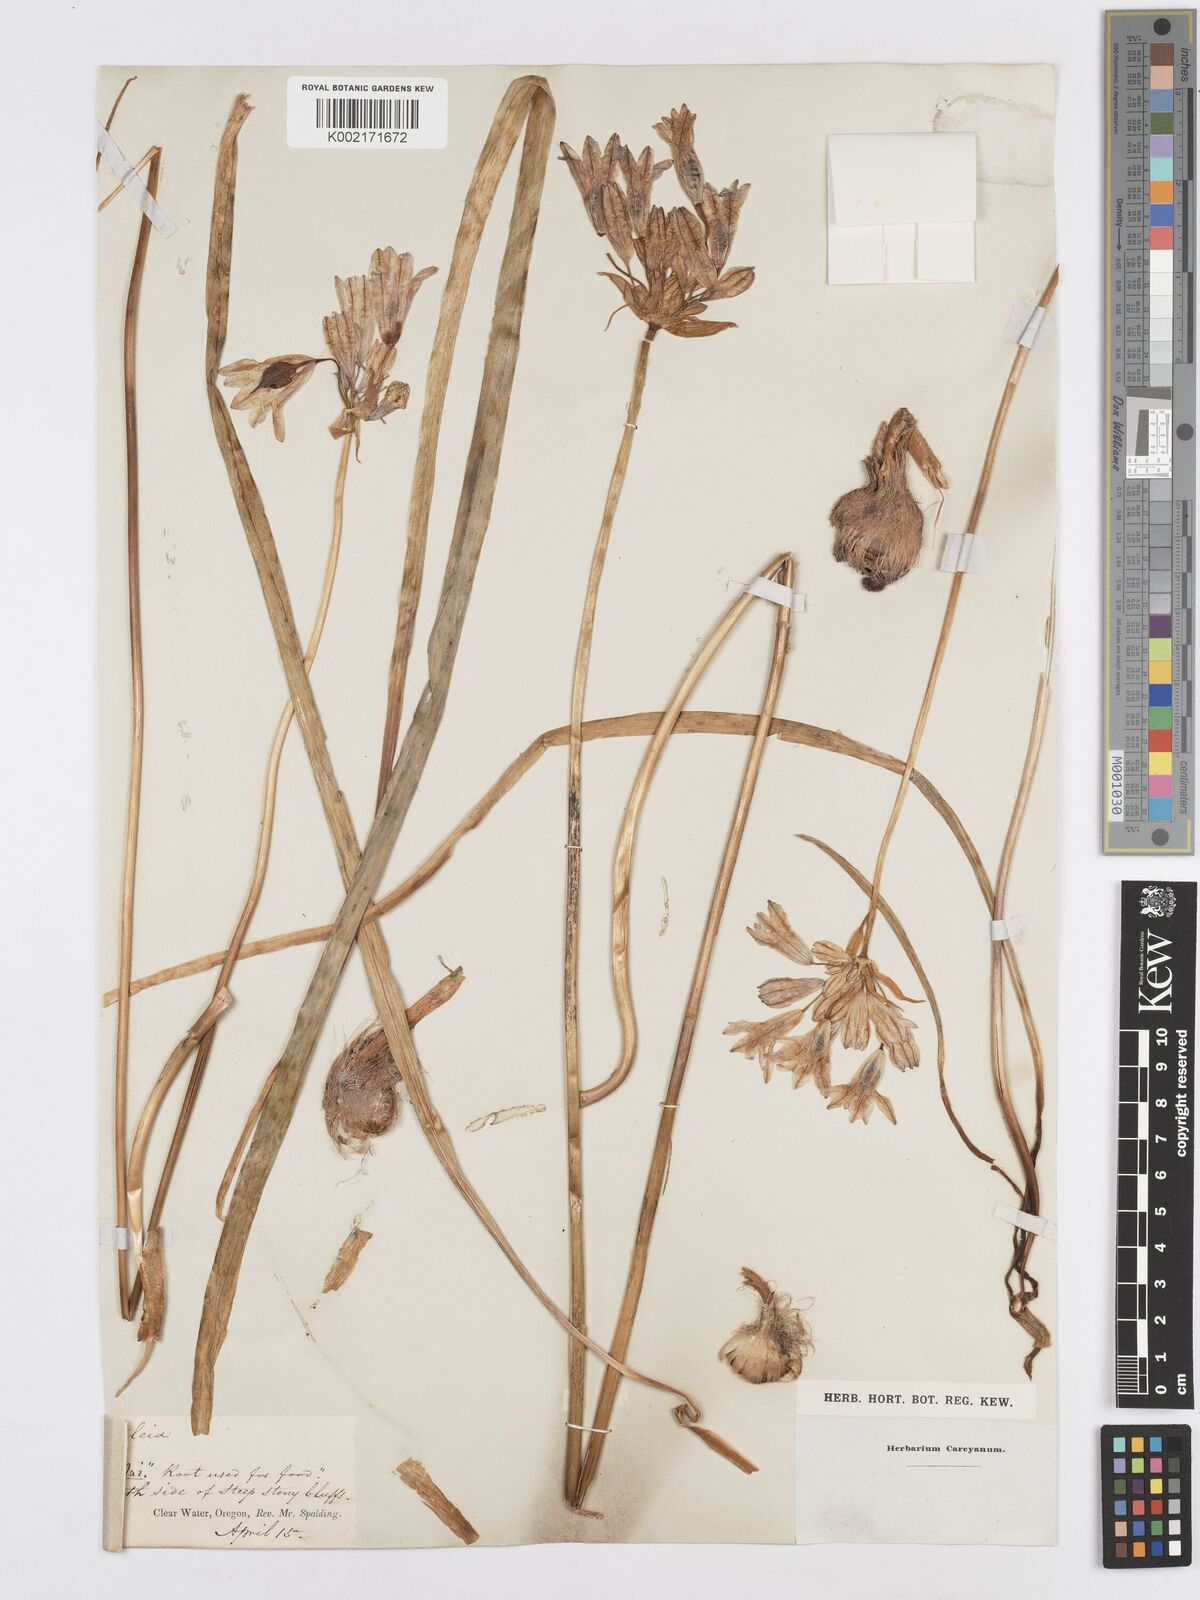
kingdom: Plantae
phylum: Tracheophyta
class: Liliopsida
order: Asparagales
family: Asparagaceae
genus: Triteleia
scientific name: Triteleia grandiflora
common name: Wild hyacinth
